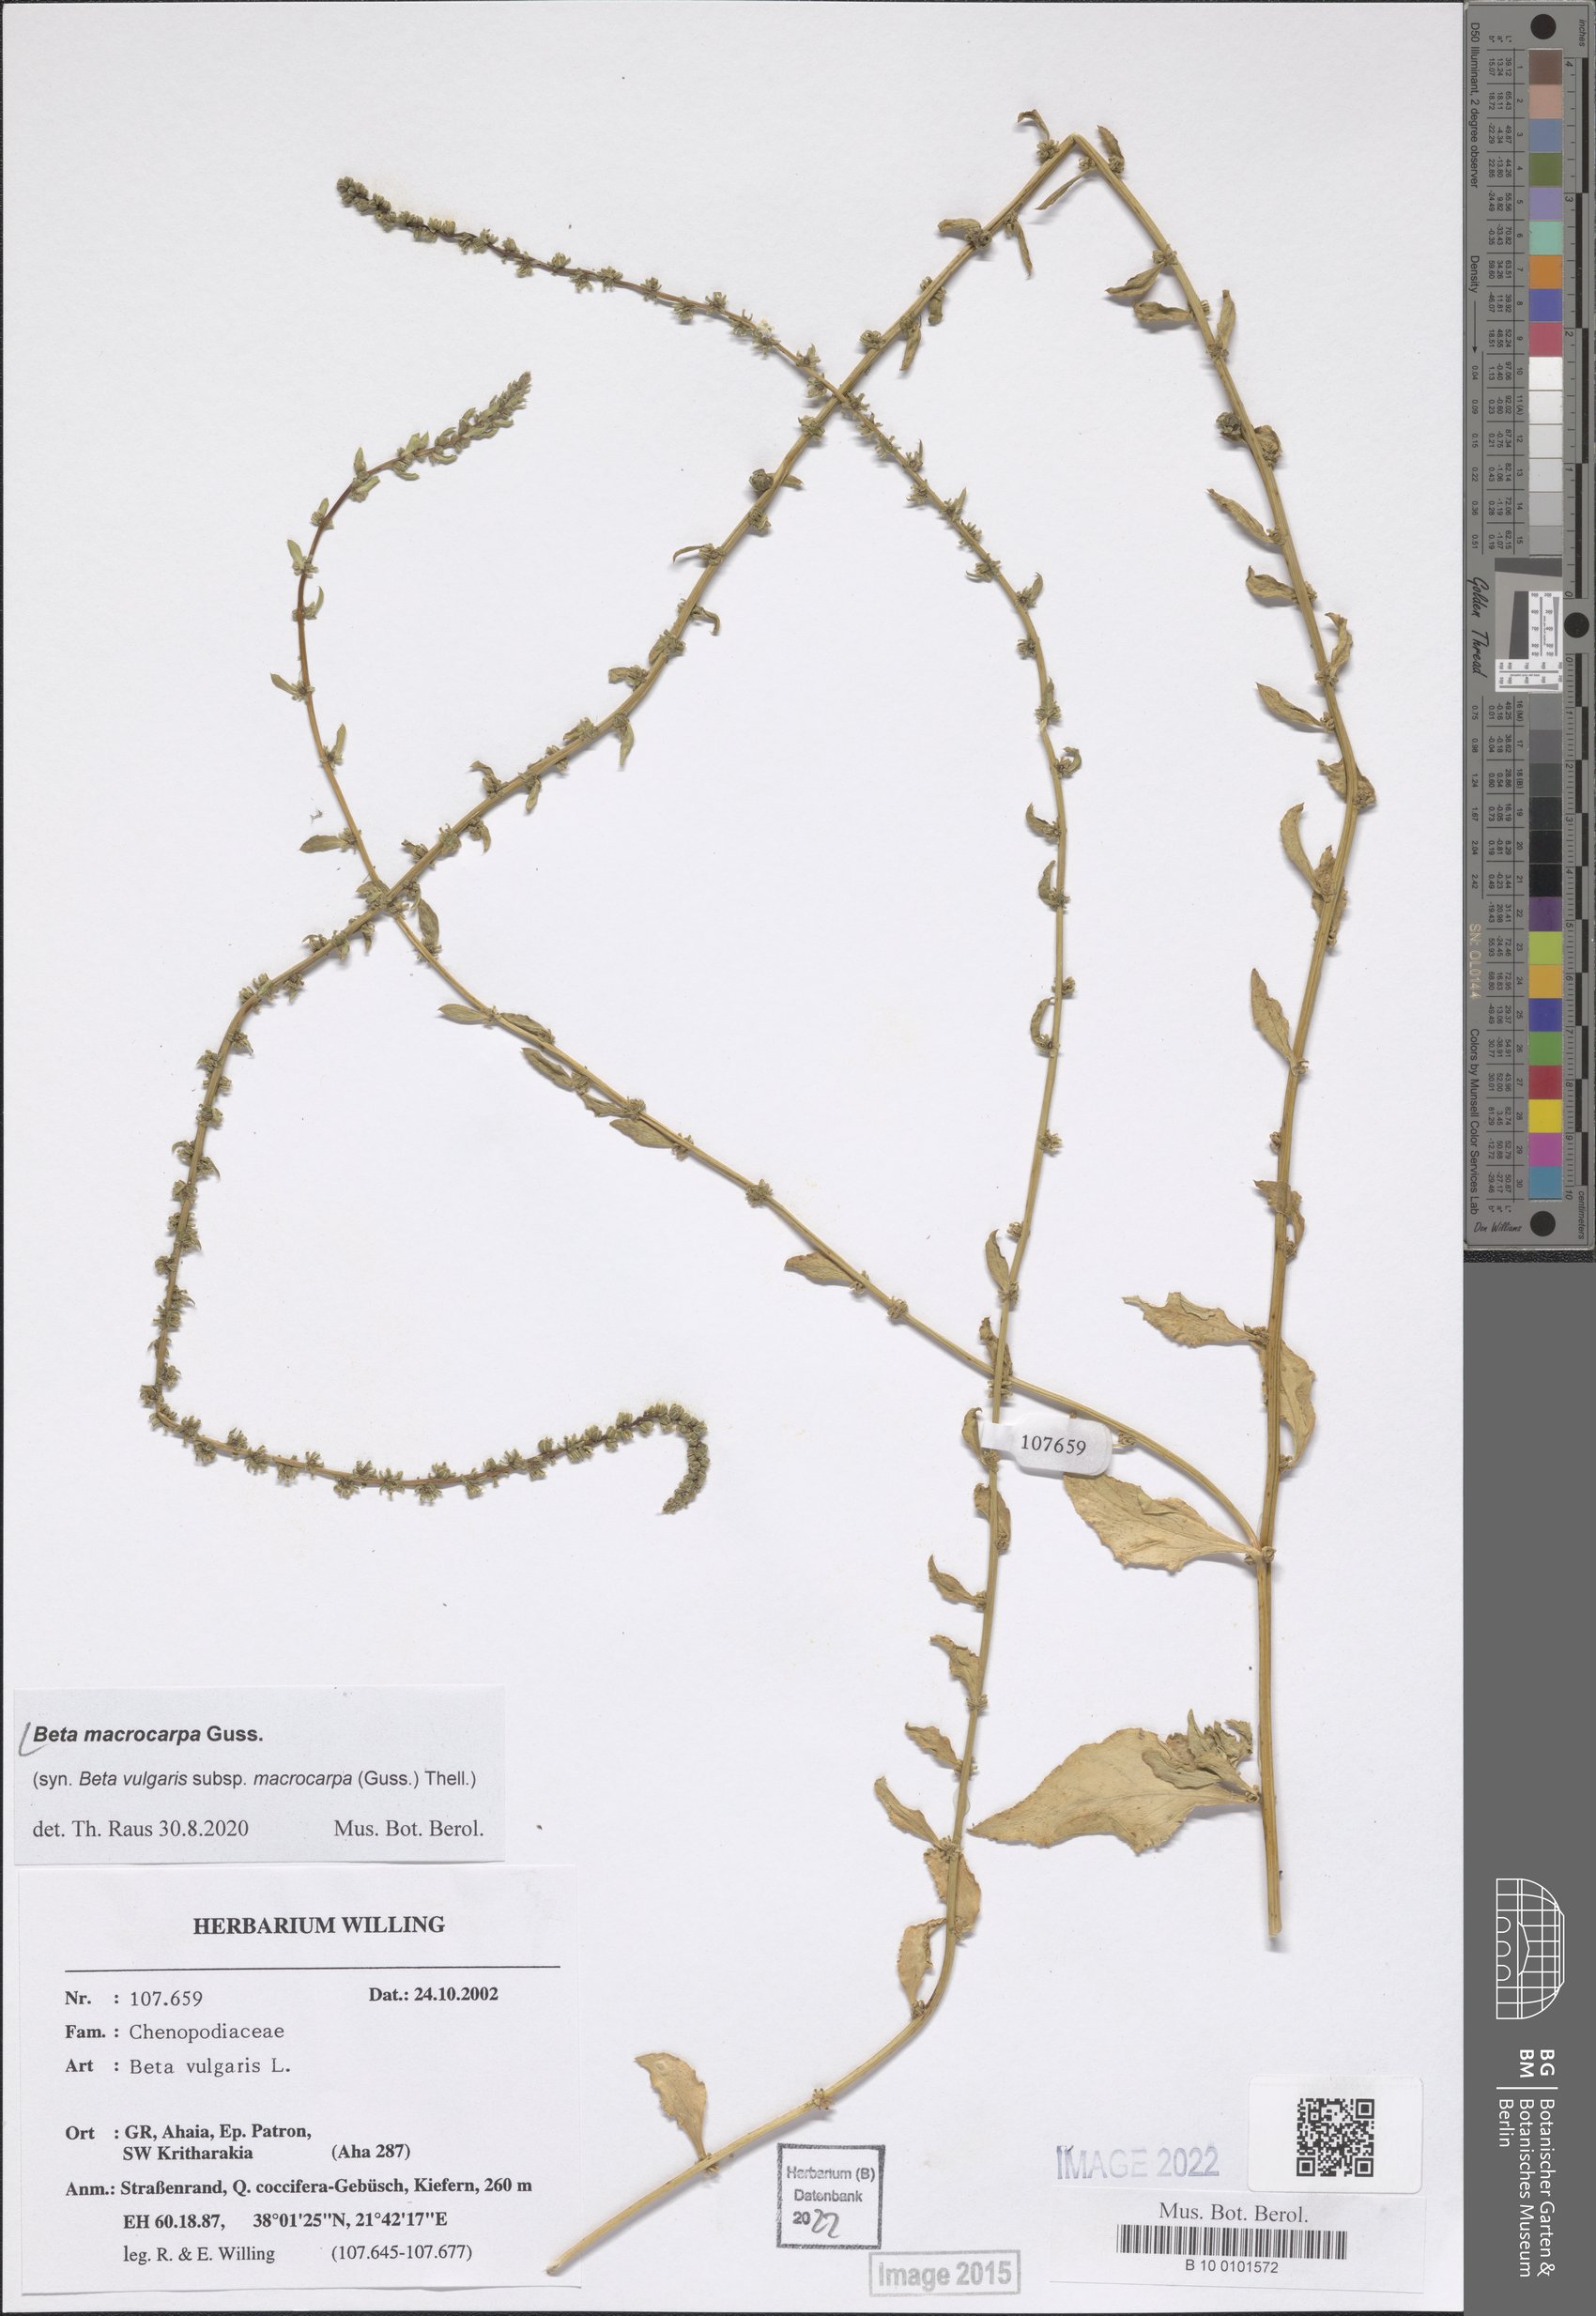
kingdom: Plantae
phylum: Tracheophyta
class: Magnoliopsida
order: Caryophyllales
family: Amaranthaceae
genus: Beta
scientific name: Beta macrocarpa
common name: Beet
